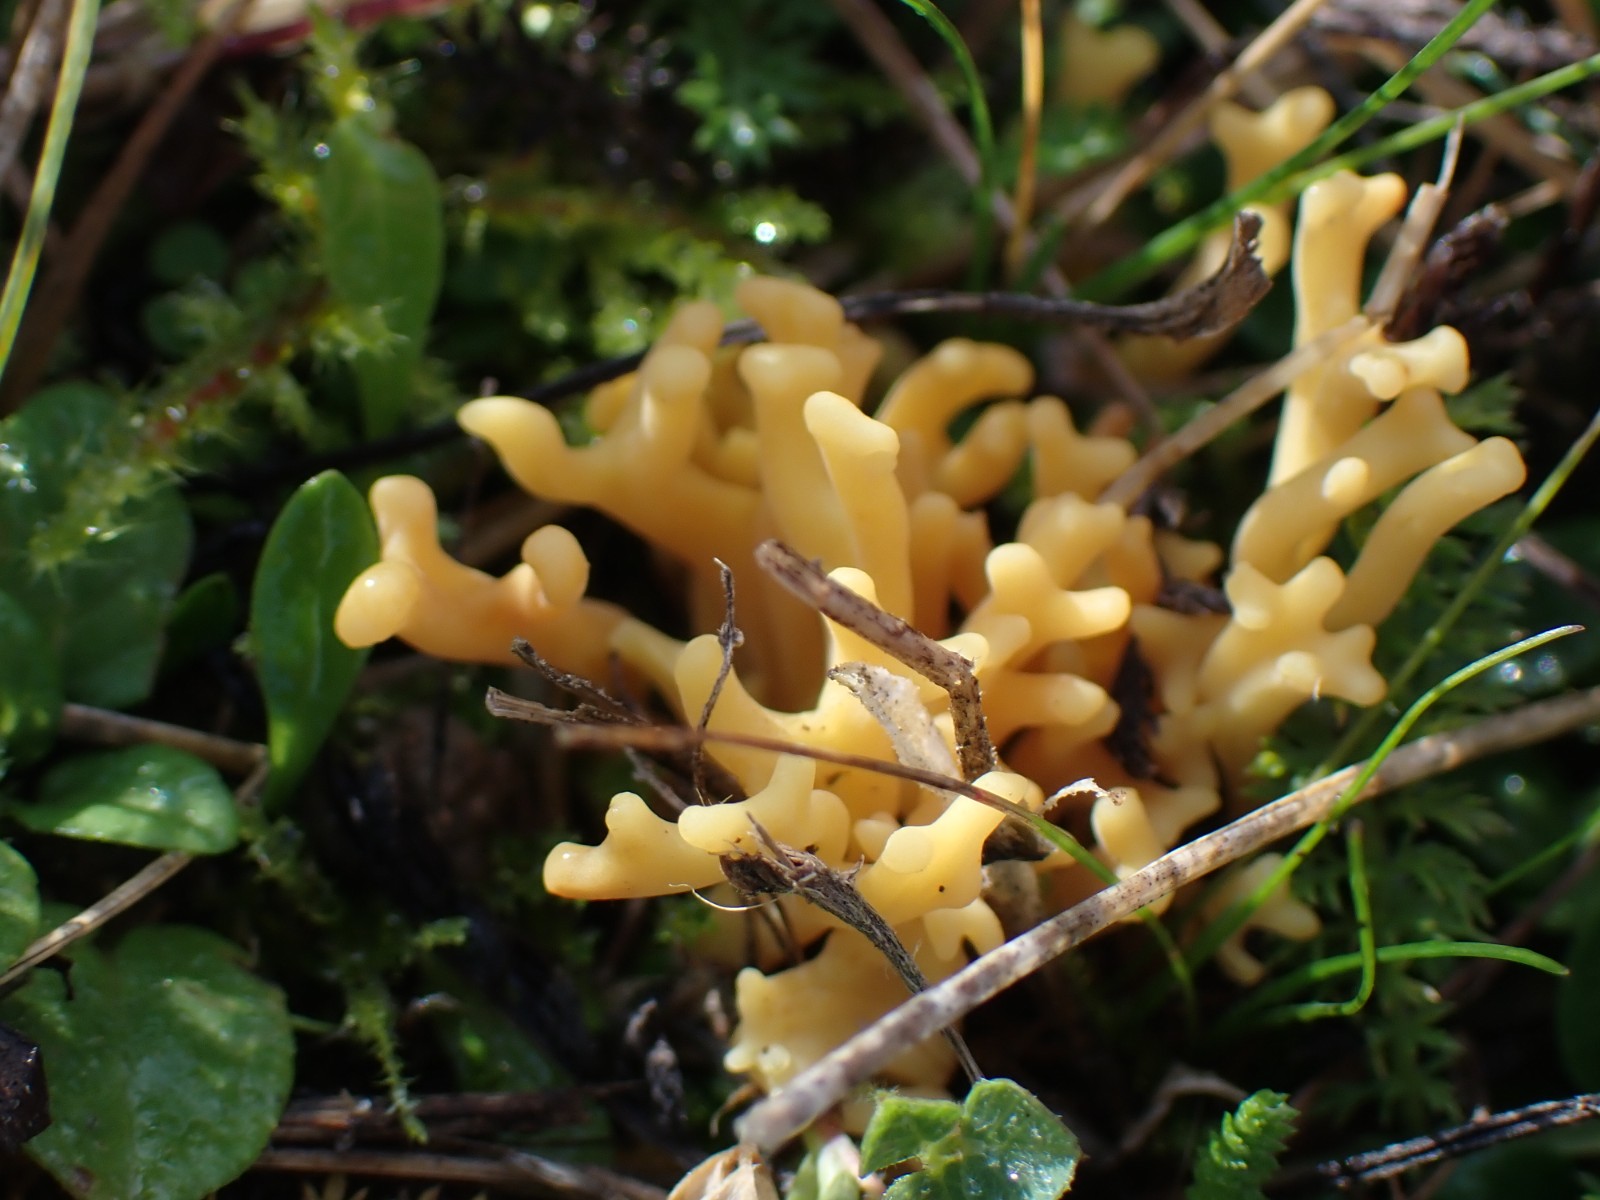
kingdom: Fungi
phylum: Basidiomycota
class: Agaricomycetes
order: Agaricales
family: Clavariaceae
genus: Clavulinopsis
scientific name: Clavulinopsis corniculata
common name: eng-køllesvamp
